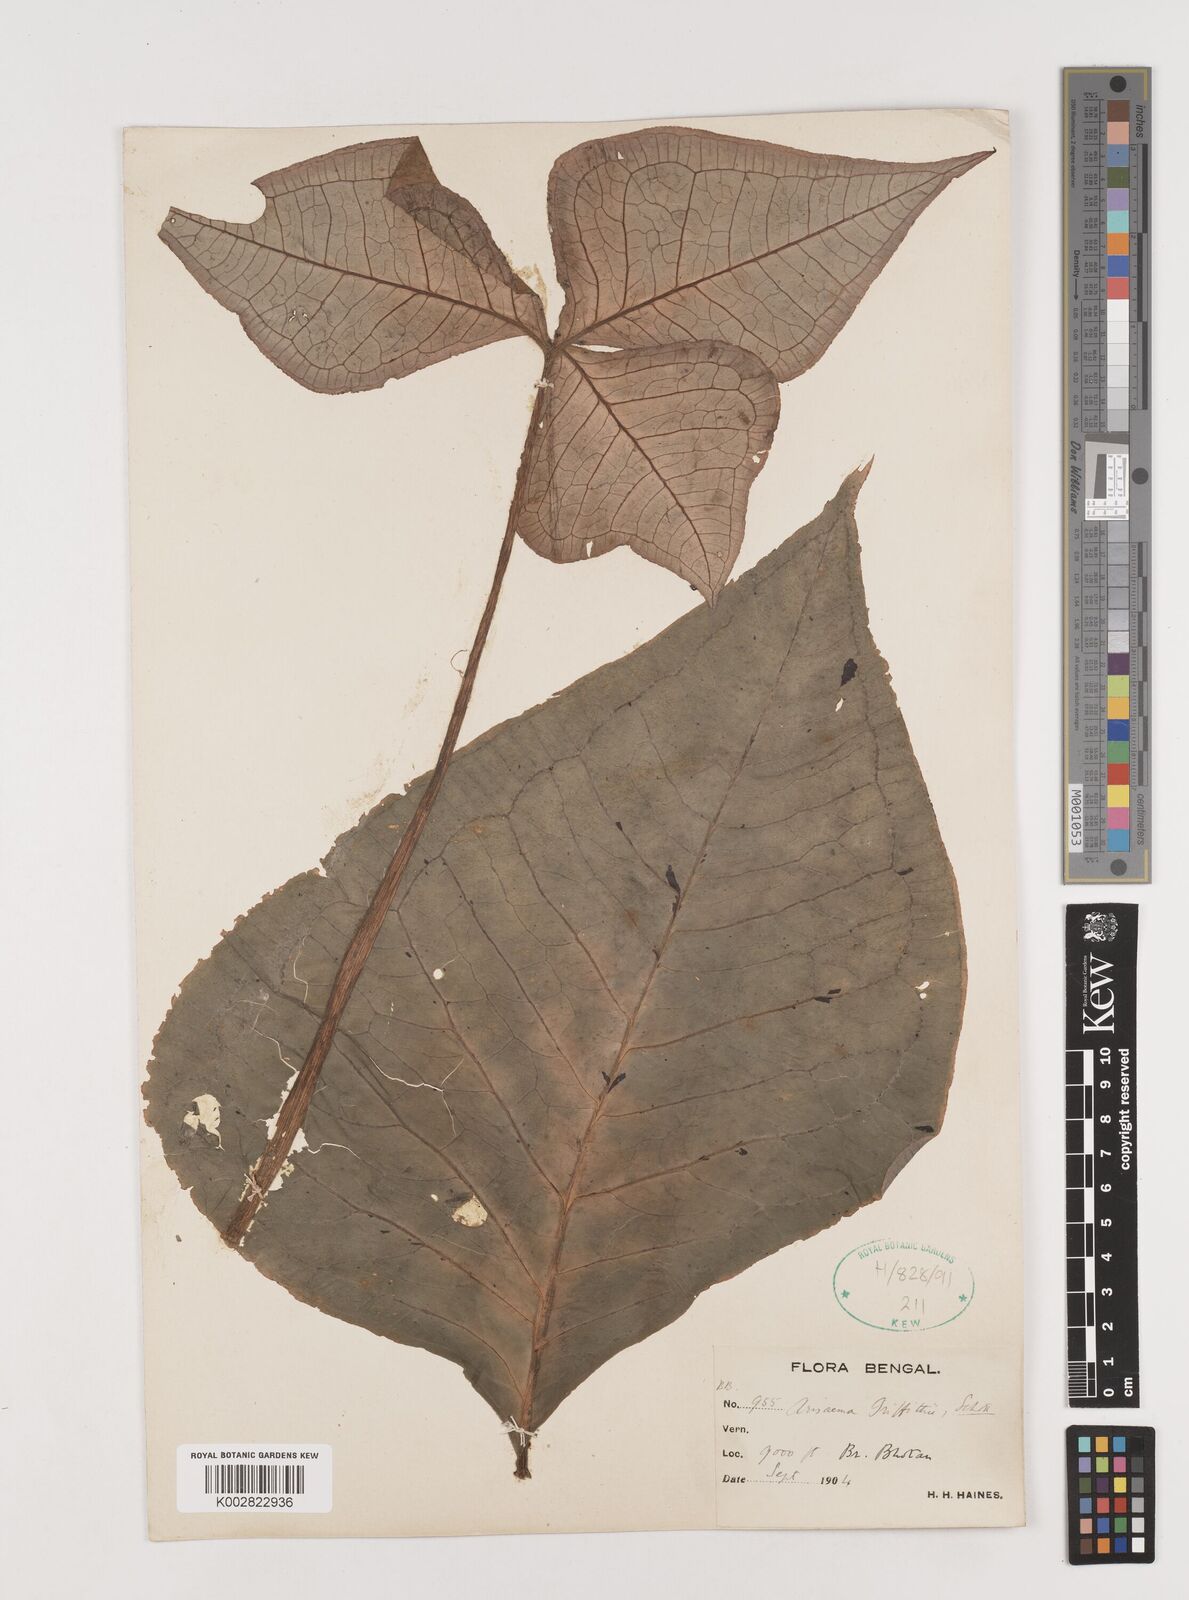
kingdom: Plantae
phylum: Tracheophyta
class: Liliopsida
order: Alismatales
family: Araceae
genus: Arisaema
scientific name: Arisaema griffithii
